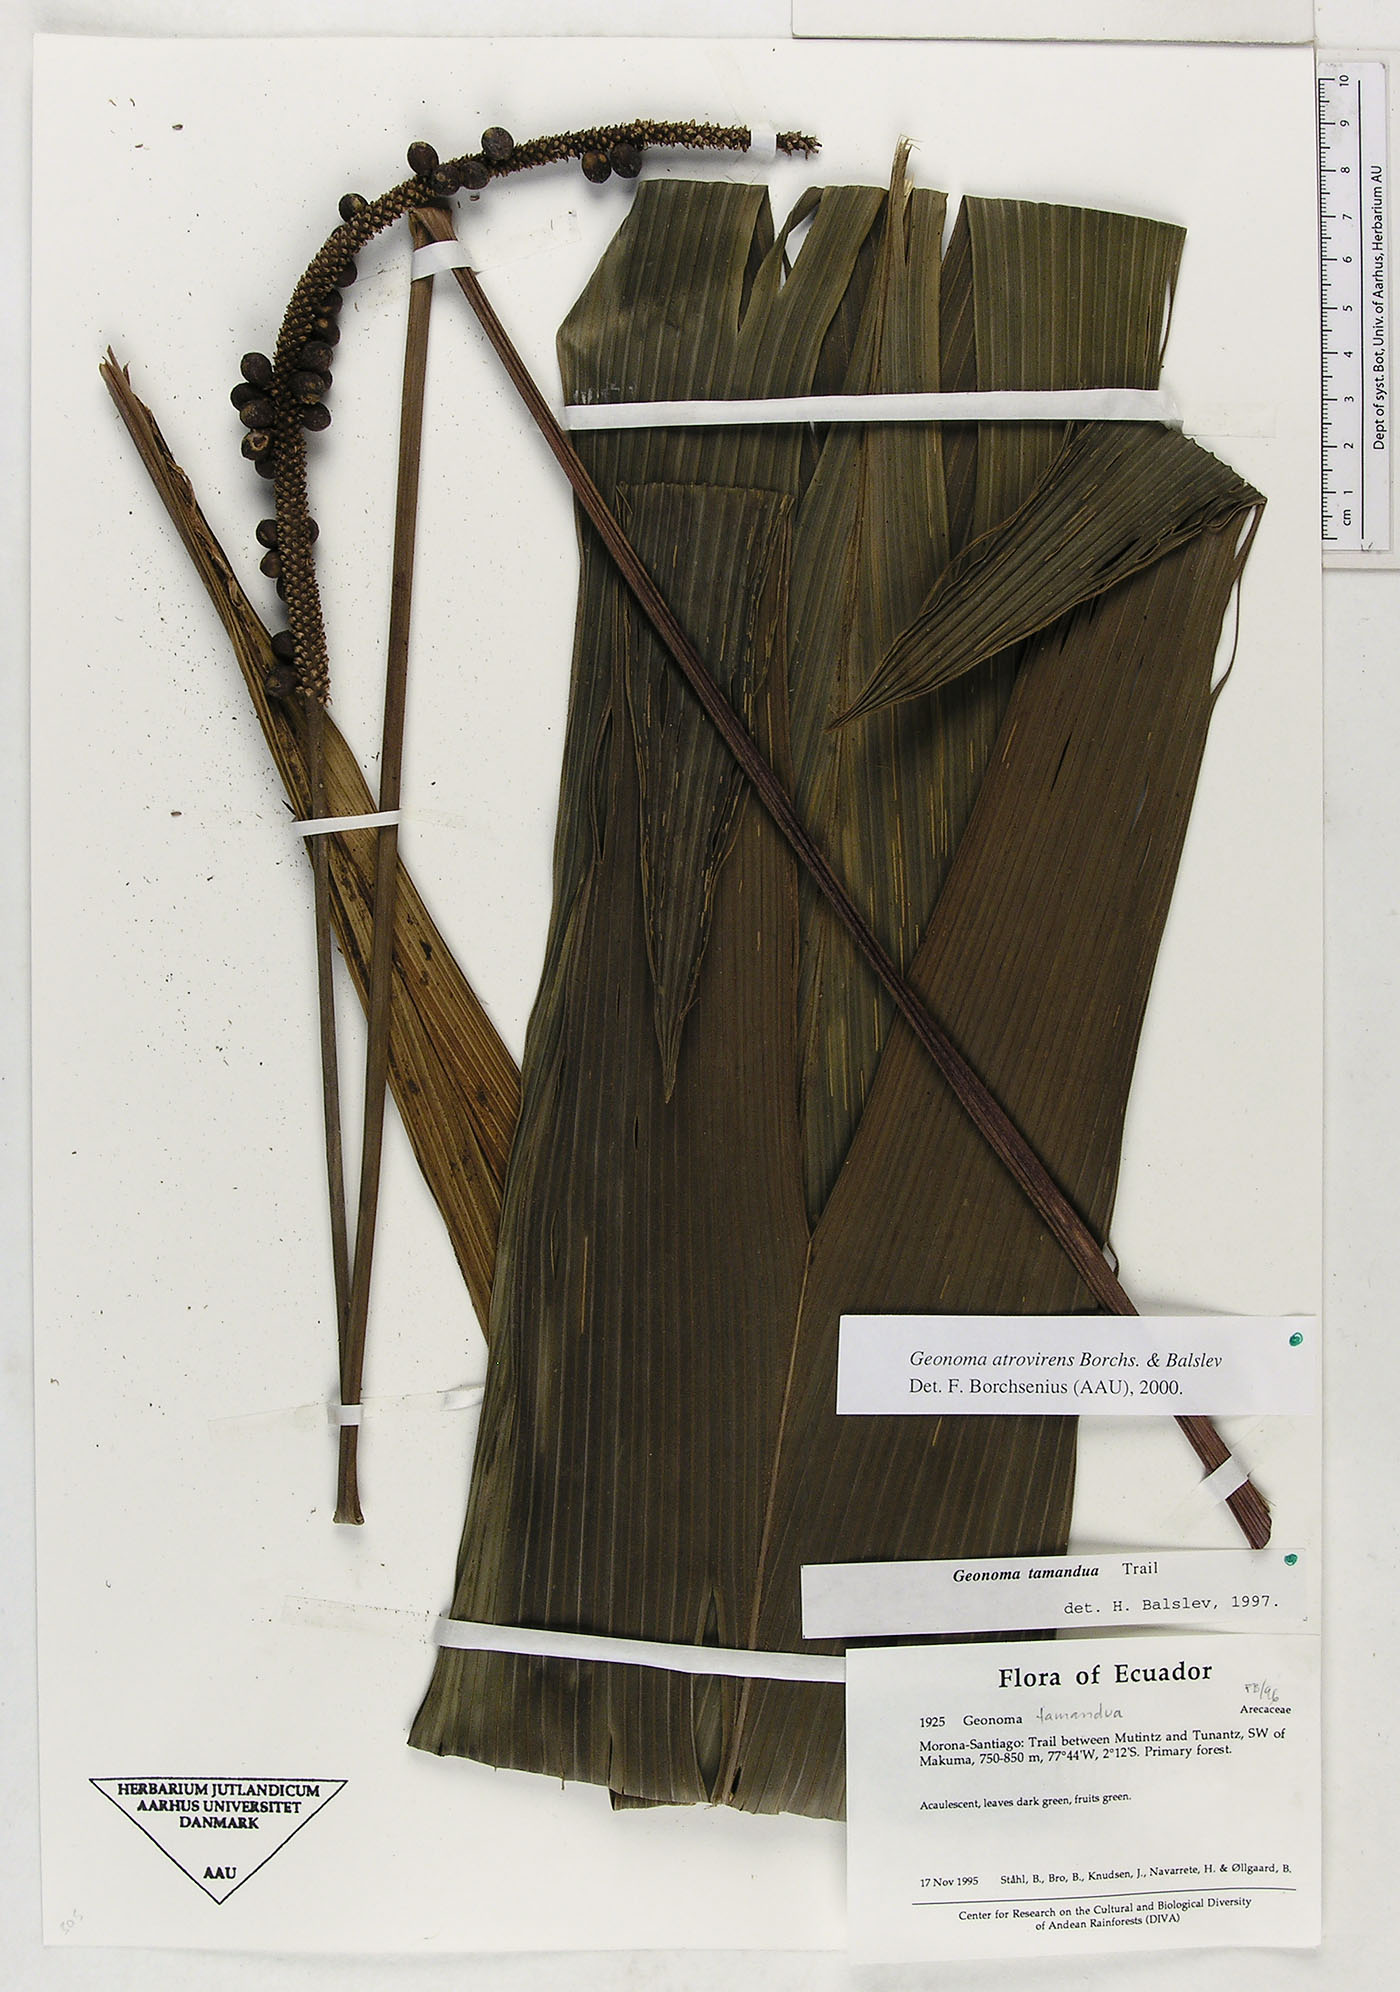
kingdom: Plantae
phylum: Tracheophyta
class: Liliopsida
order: Arecales
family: Arecaceae
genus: Geonoma
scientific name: Geonoma macrostachys
